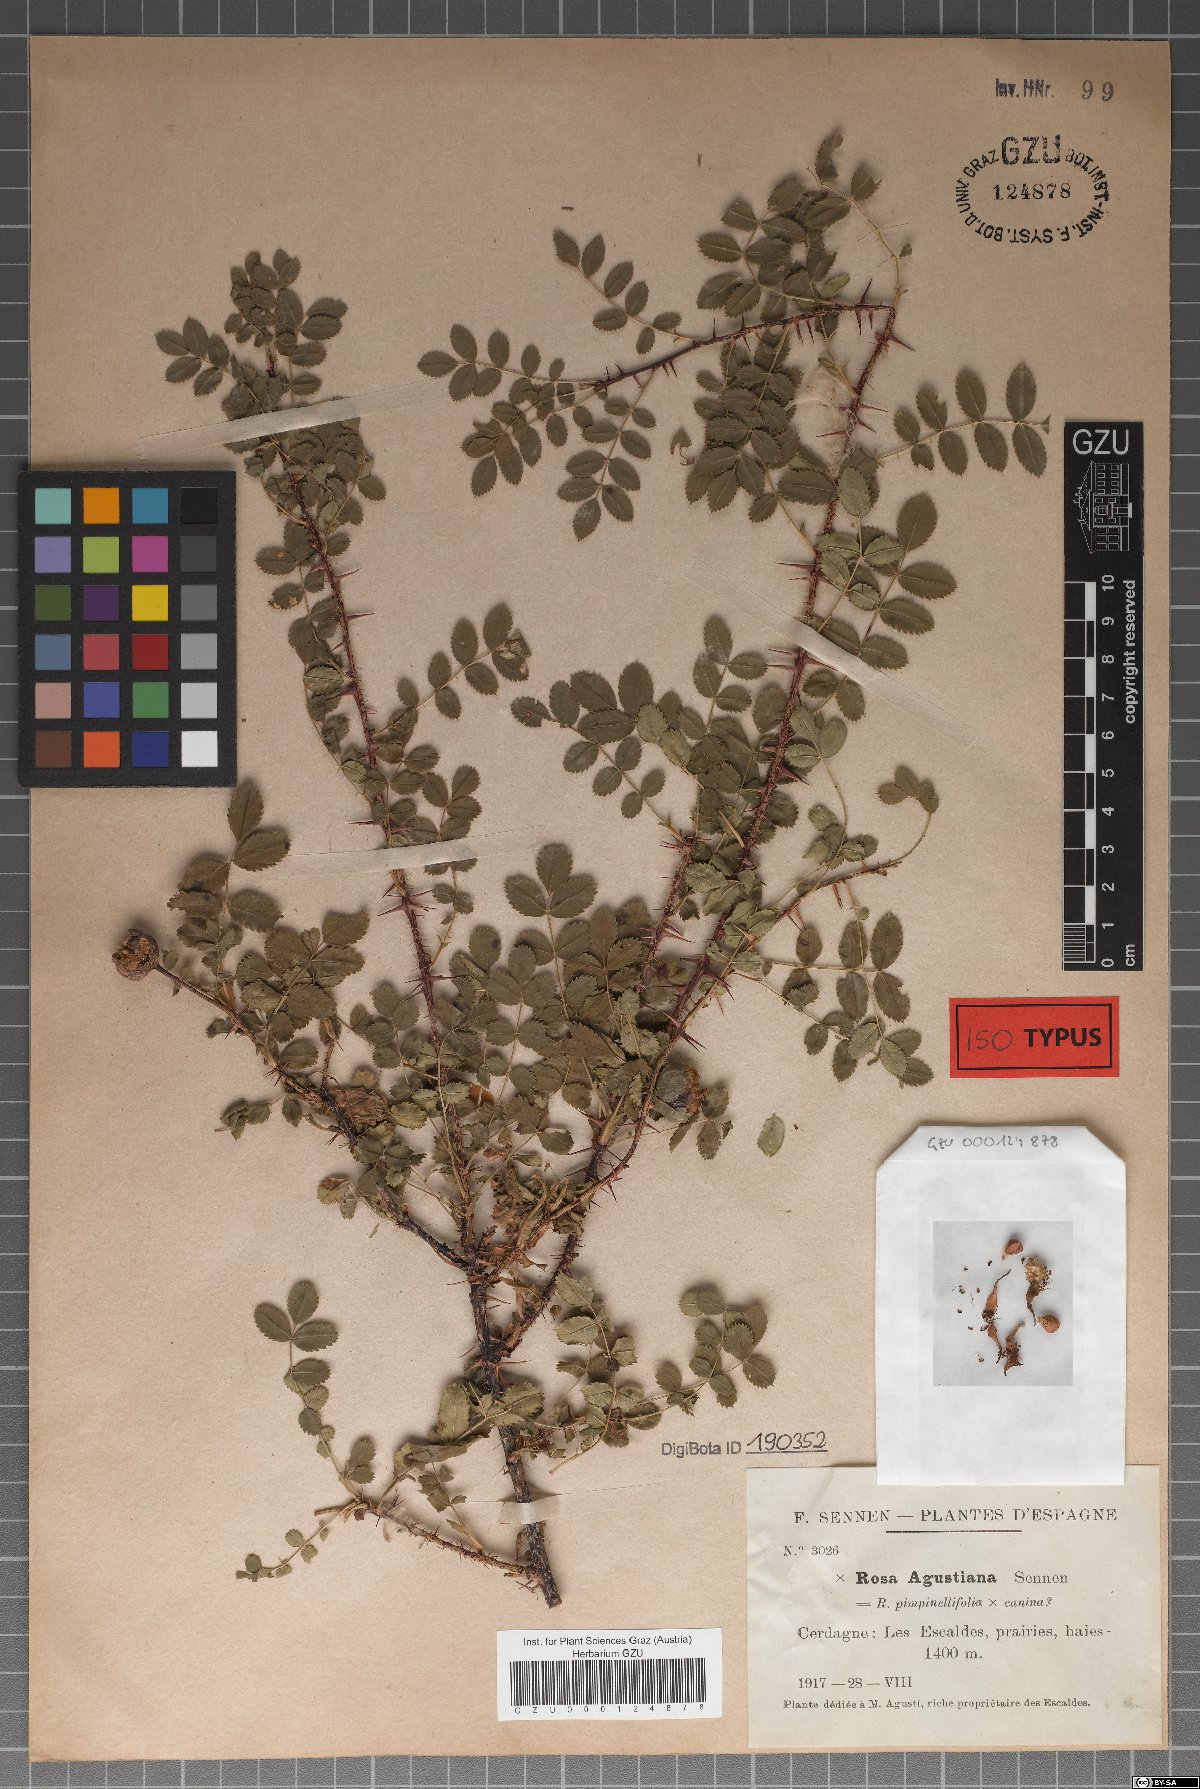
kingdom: Plantae
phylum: Tracheophyta
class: Magnoliopsida
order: Rosales
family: Rosaceae
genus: Rosa
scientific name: Rosa spinosissima
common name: Burnet rose
